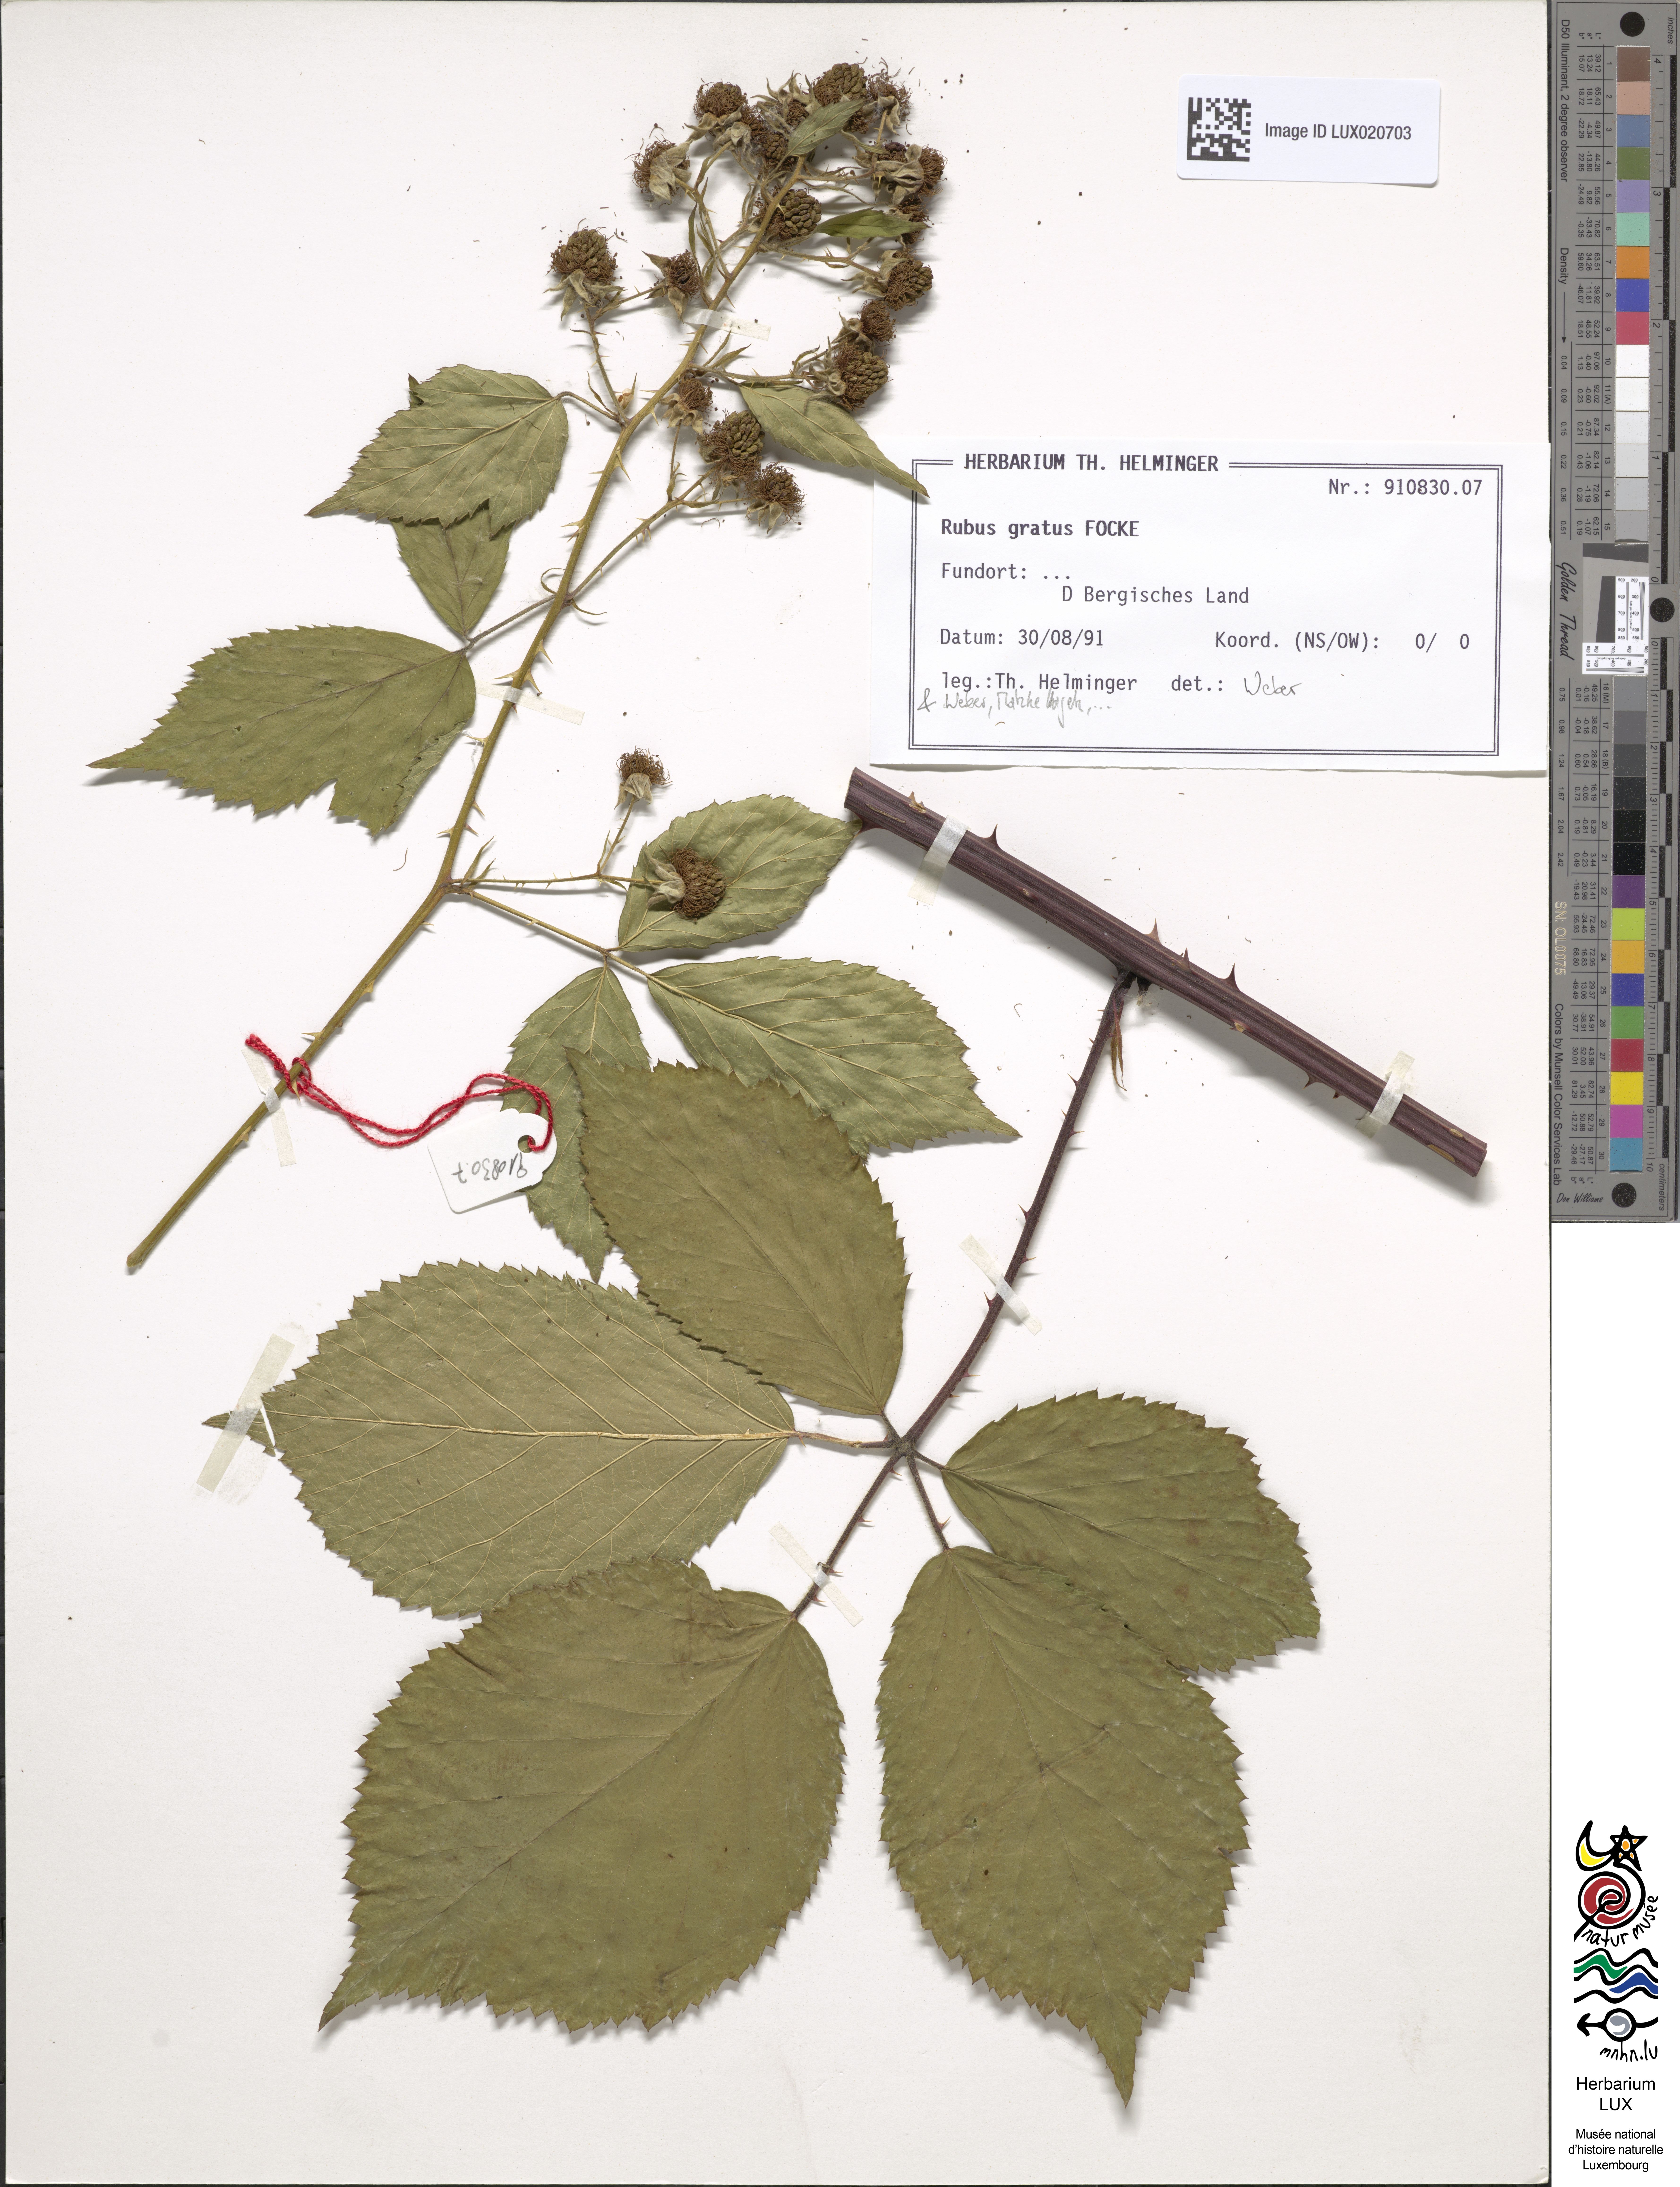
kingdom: Plantae
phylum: Tracheophyta
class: Magnoliopsida
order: Rosales
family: Rosaceae
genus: Rubus
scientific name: Rubus gratus
